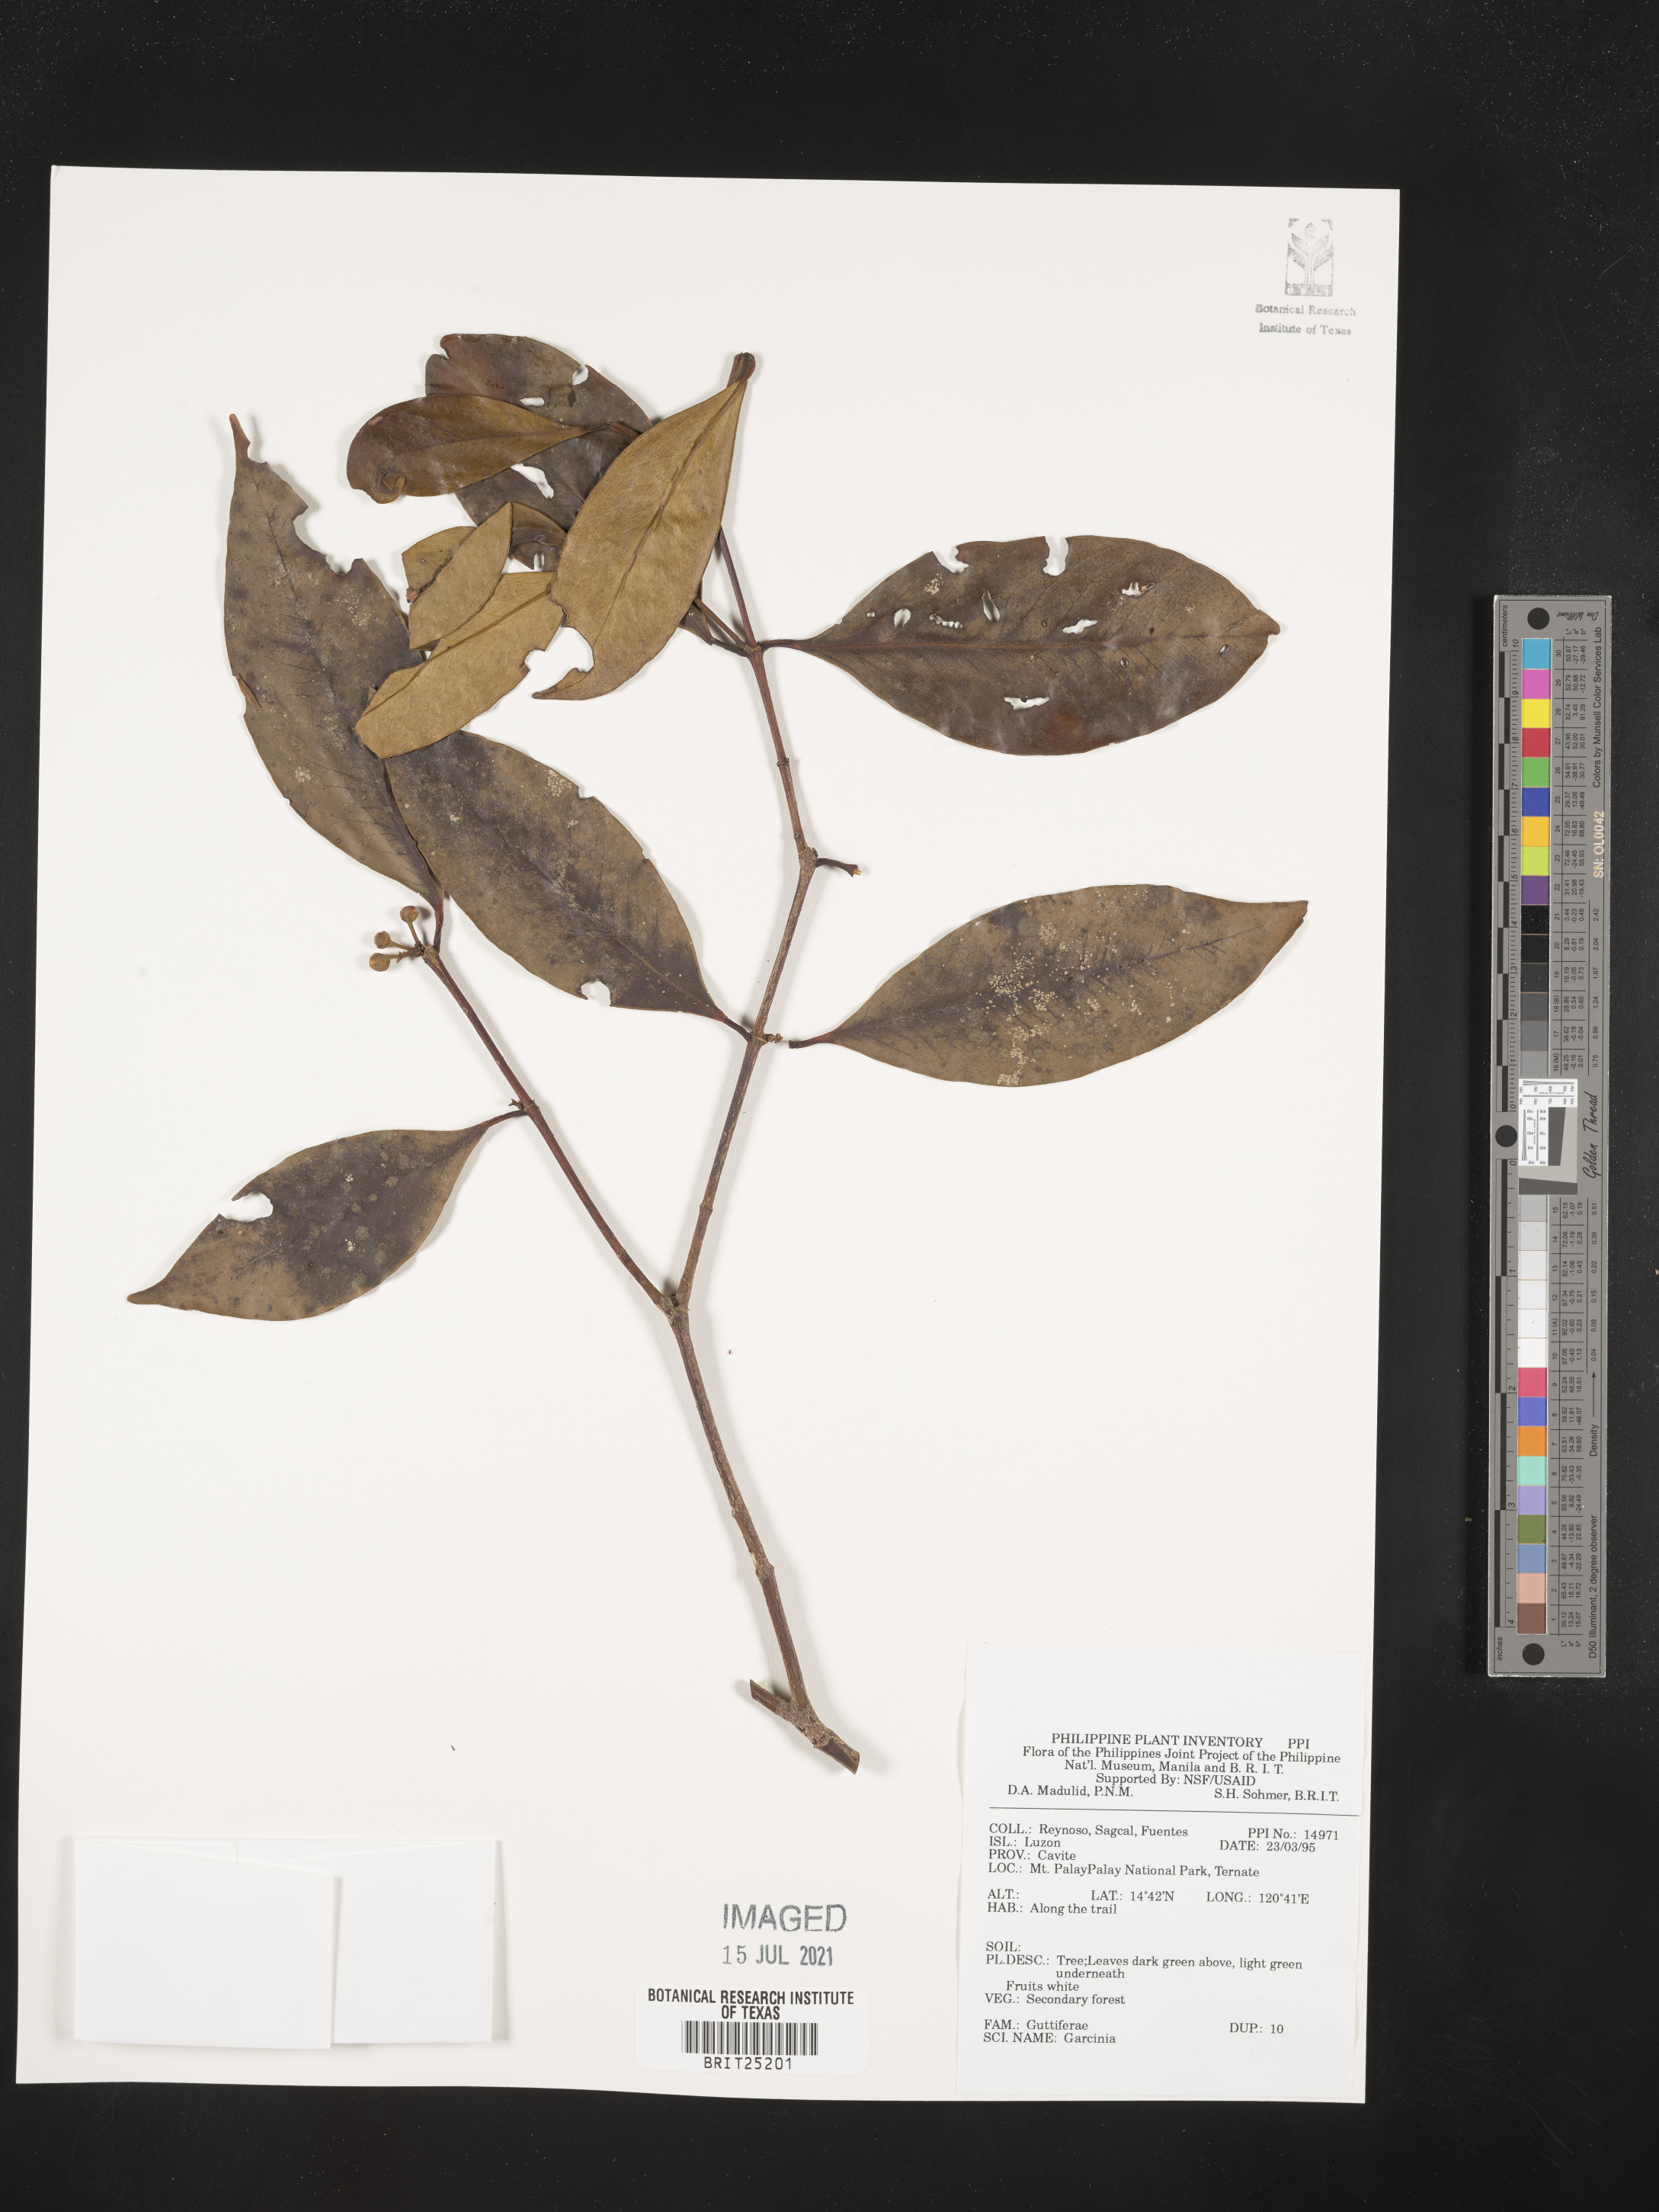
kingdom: Plantae
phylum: Tracheophyta
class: Magnoliopsida
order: Malpighiales
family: Clusiaceae
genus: Garcinia
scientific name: Garcinia
